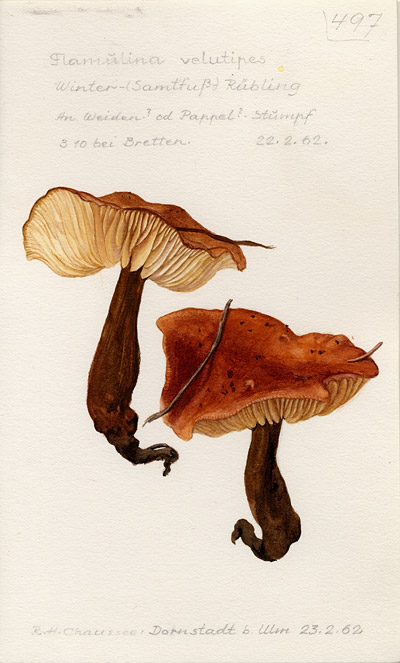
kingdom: Fungi
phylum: Basidiomycota
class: Agaricomycetes
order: Agaricales
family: Physalacriaceae
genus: Flammulina
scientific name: Flammulina velutipes
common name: Velvet shank
